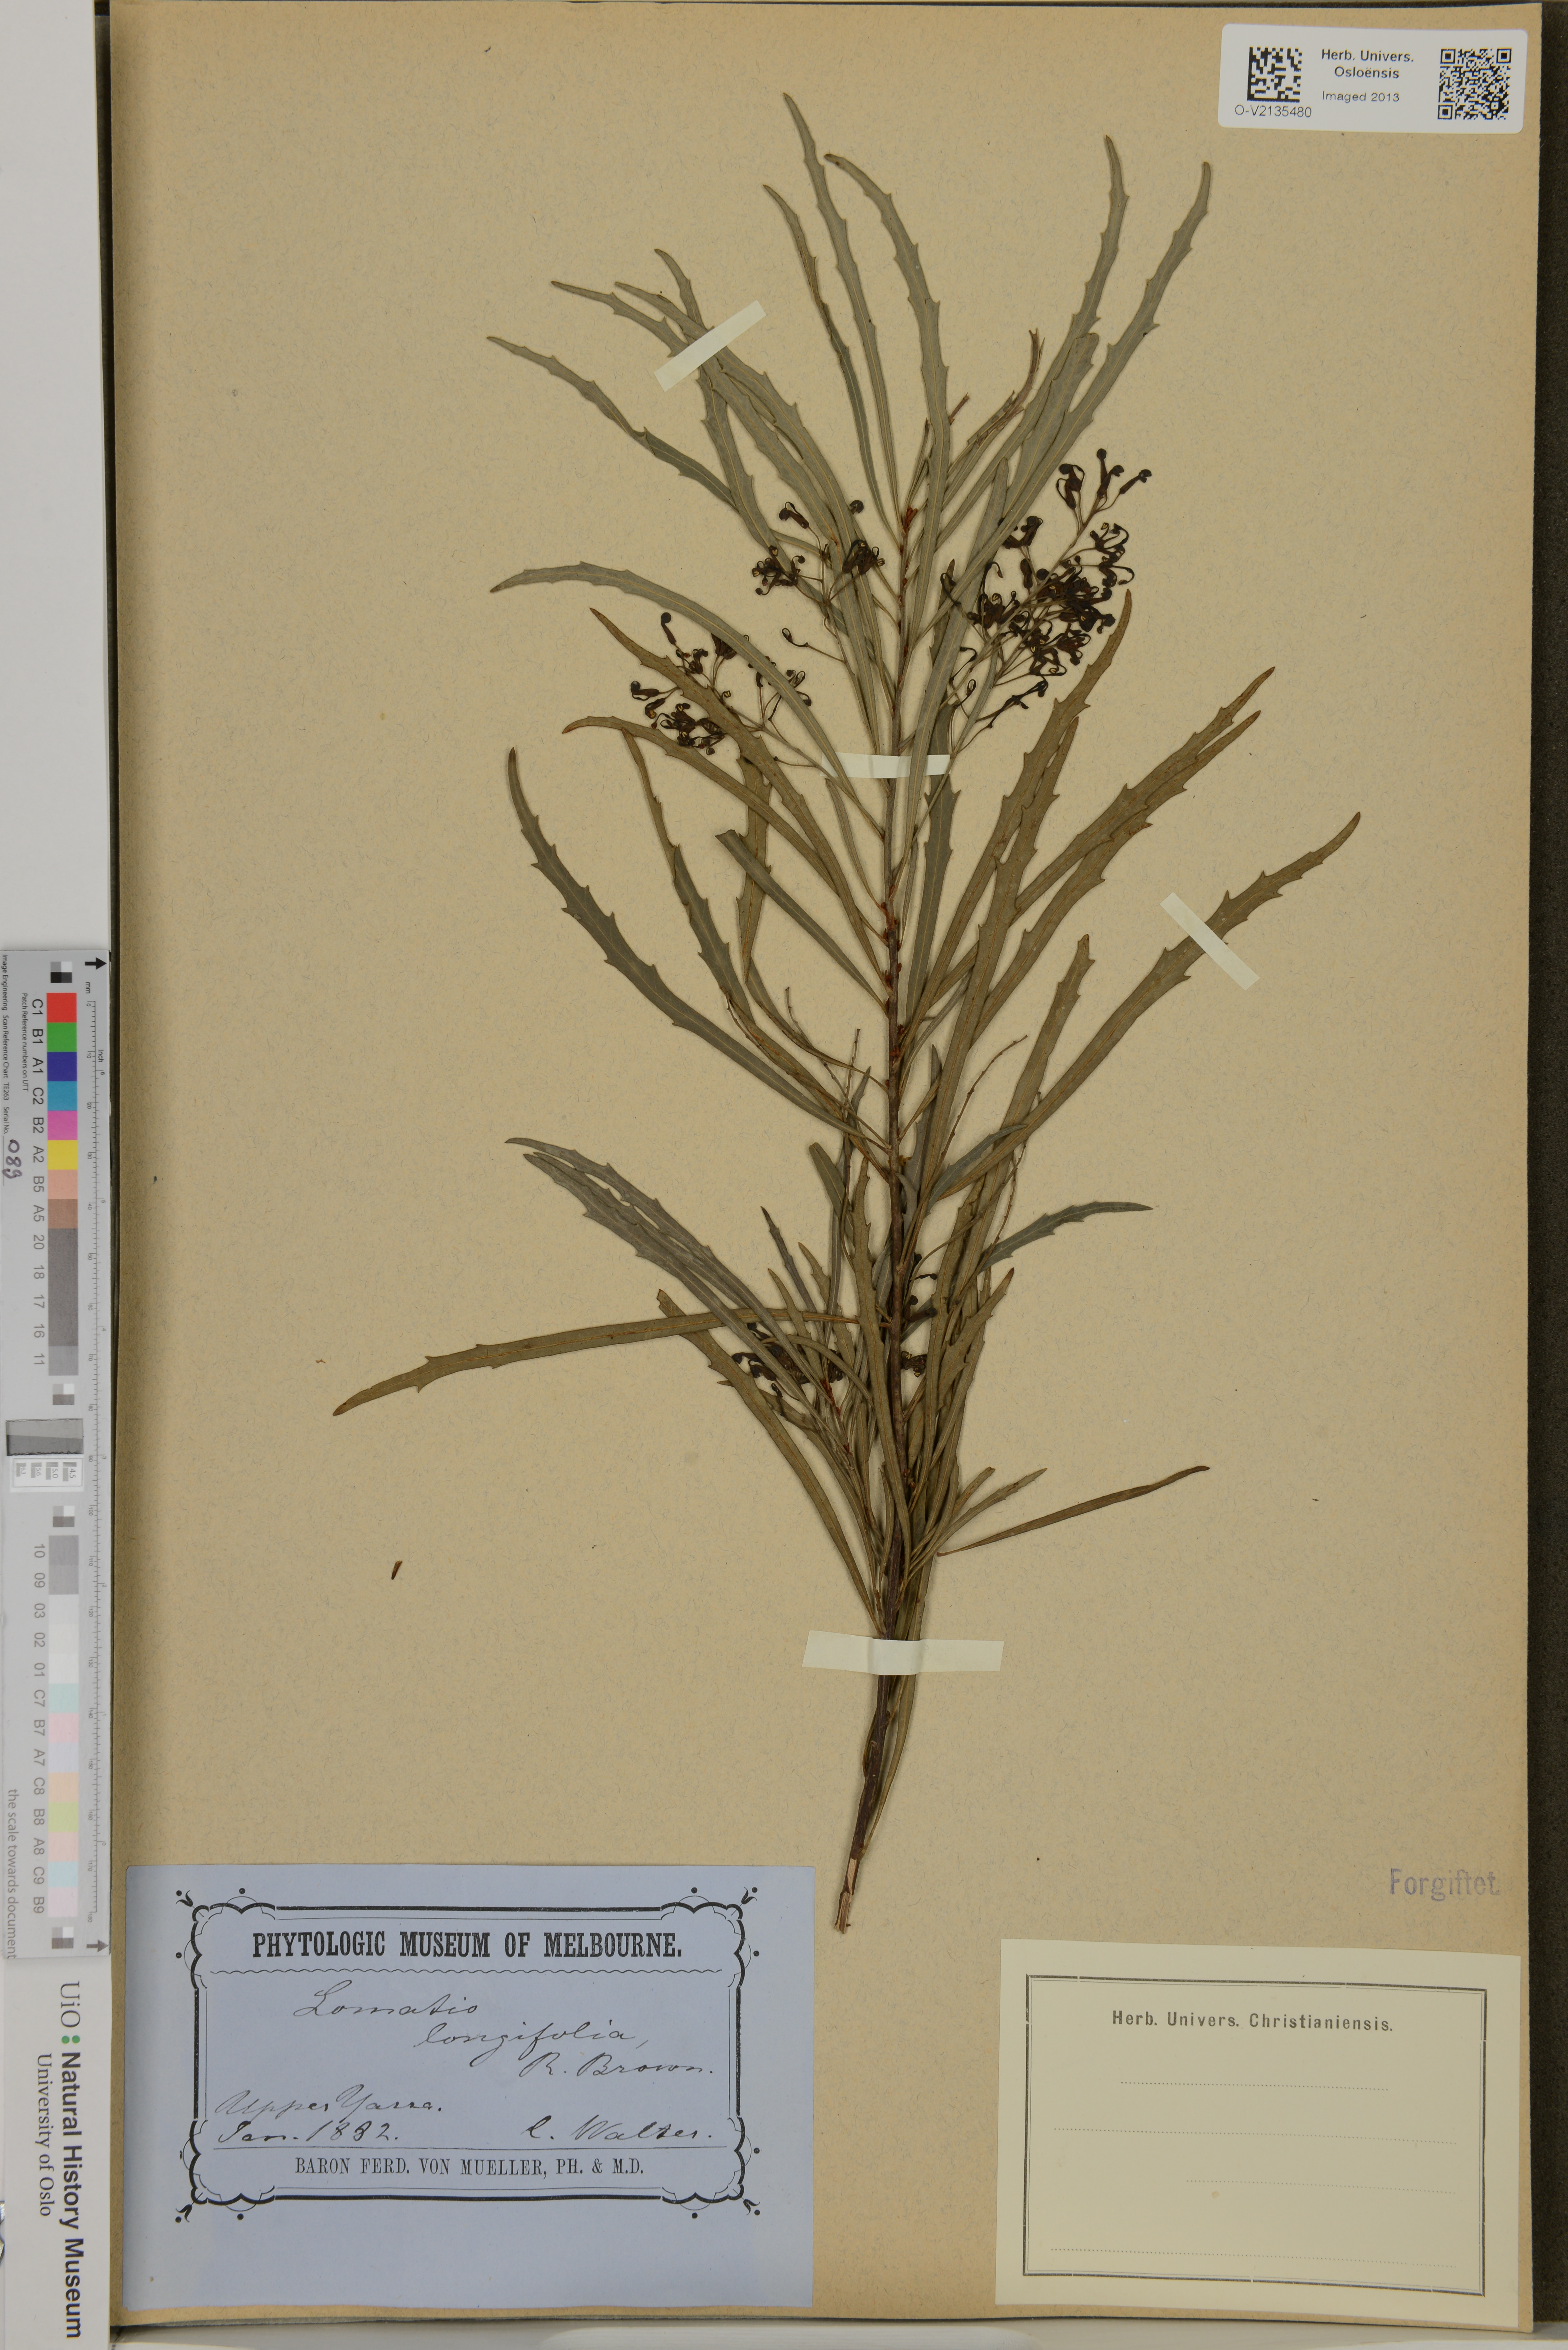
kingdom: Plantae
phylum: Tracheophyta
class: Magnoliopsida
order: Proteales
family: Proteaceae
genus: Lomatia
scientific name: Lomatia myricoides
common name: Longleaf lomatia
